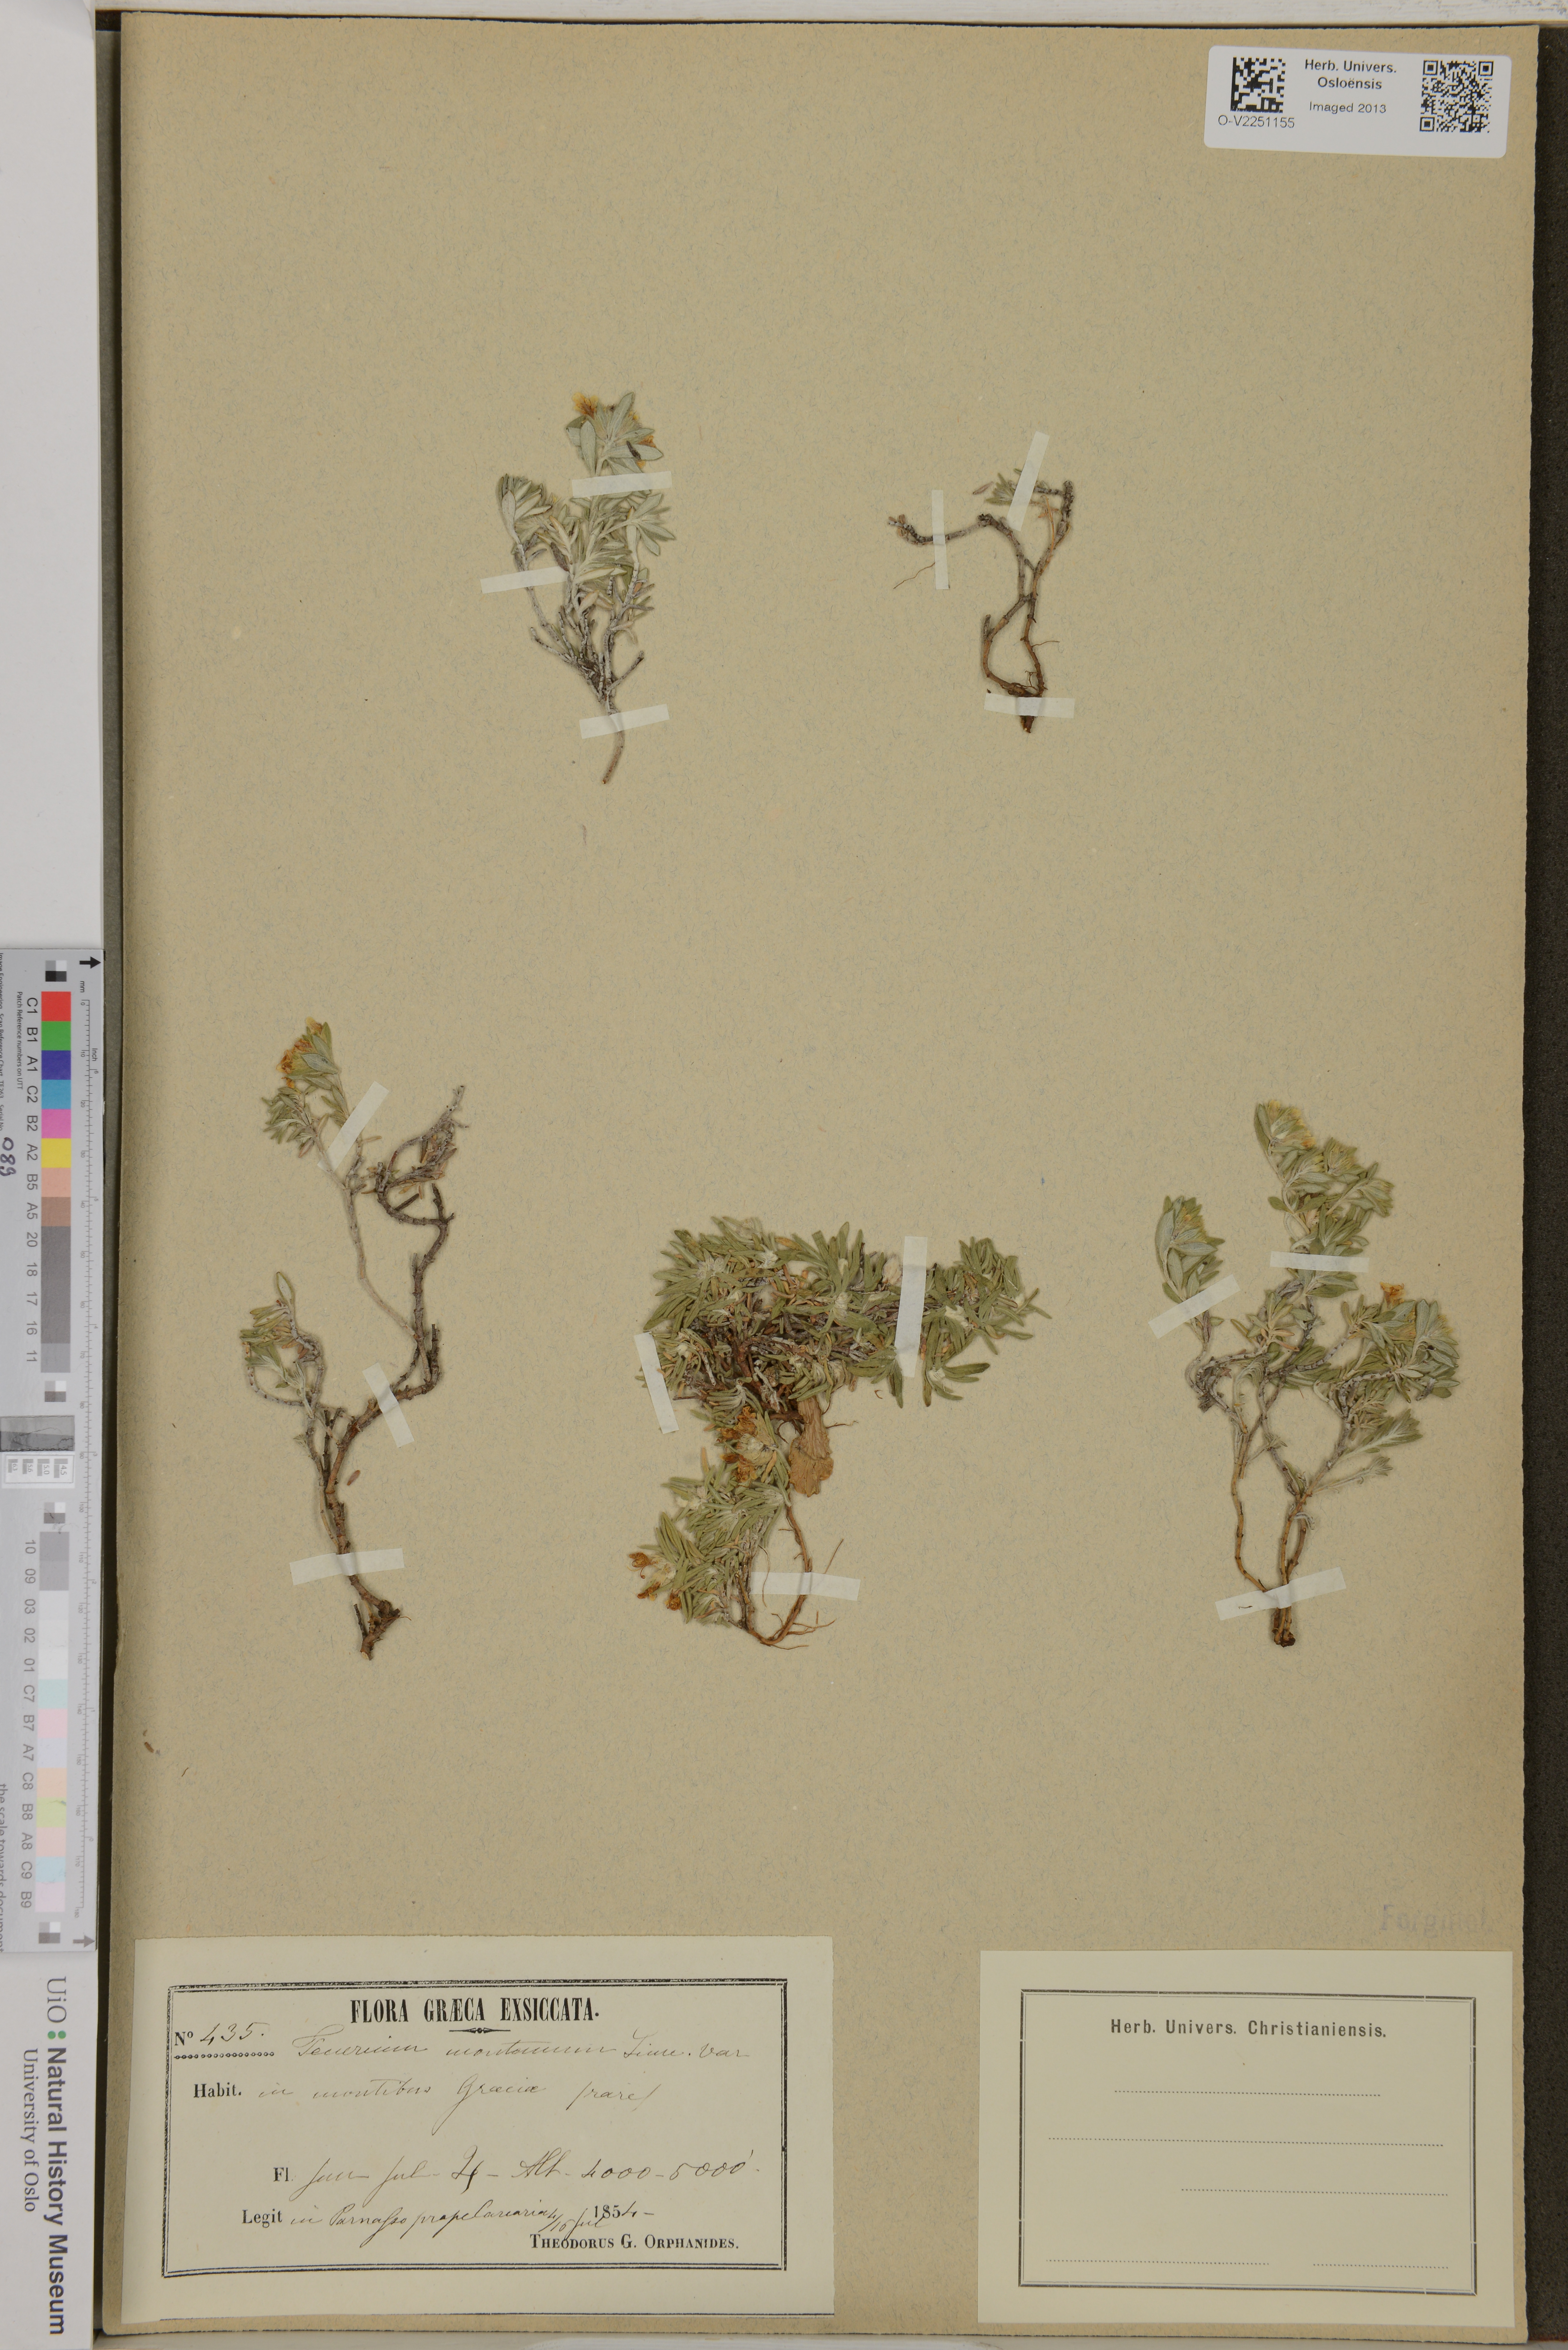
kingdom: Plantae
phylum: Tracheophyta
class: Magnoliopsida
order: Lamiales
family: Lamiaceae
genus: Teucrium
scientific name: Teucrium montanum
